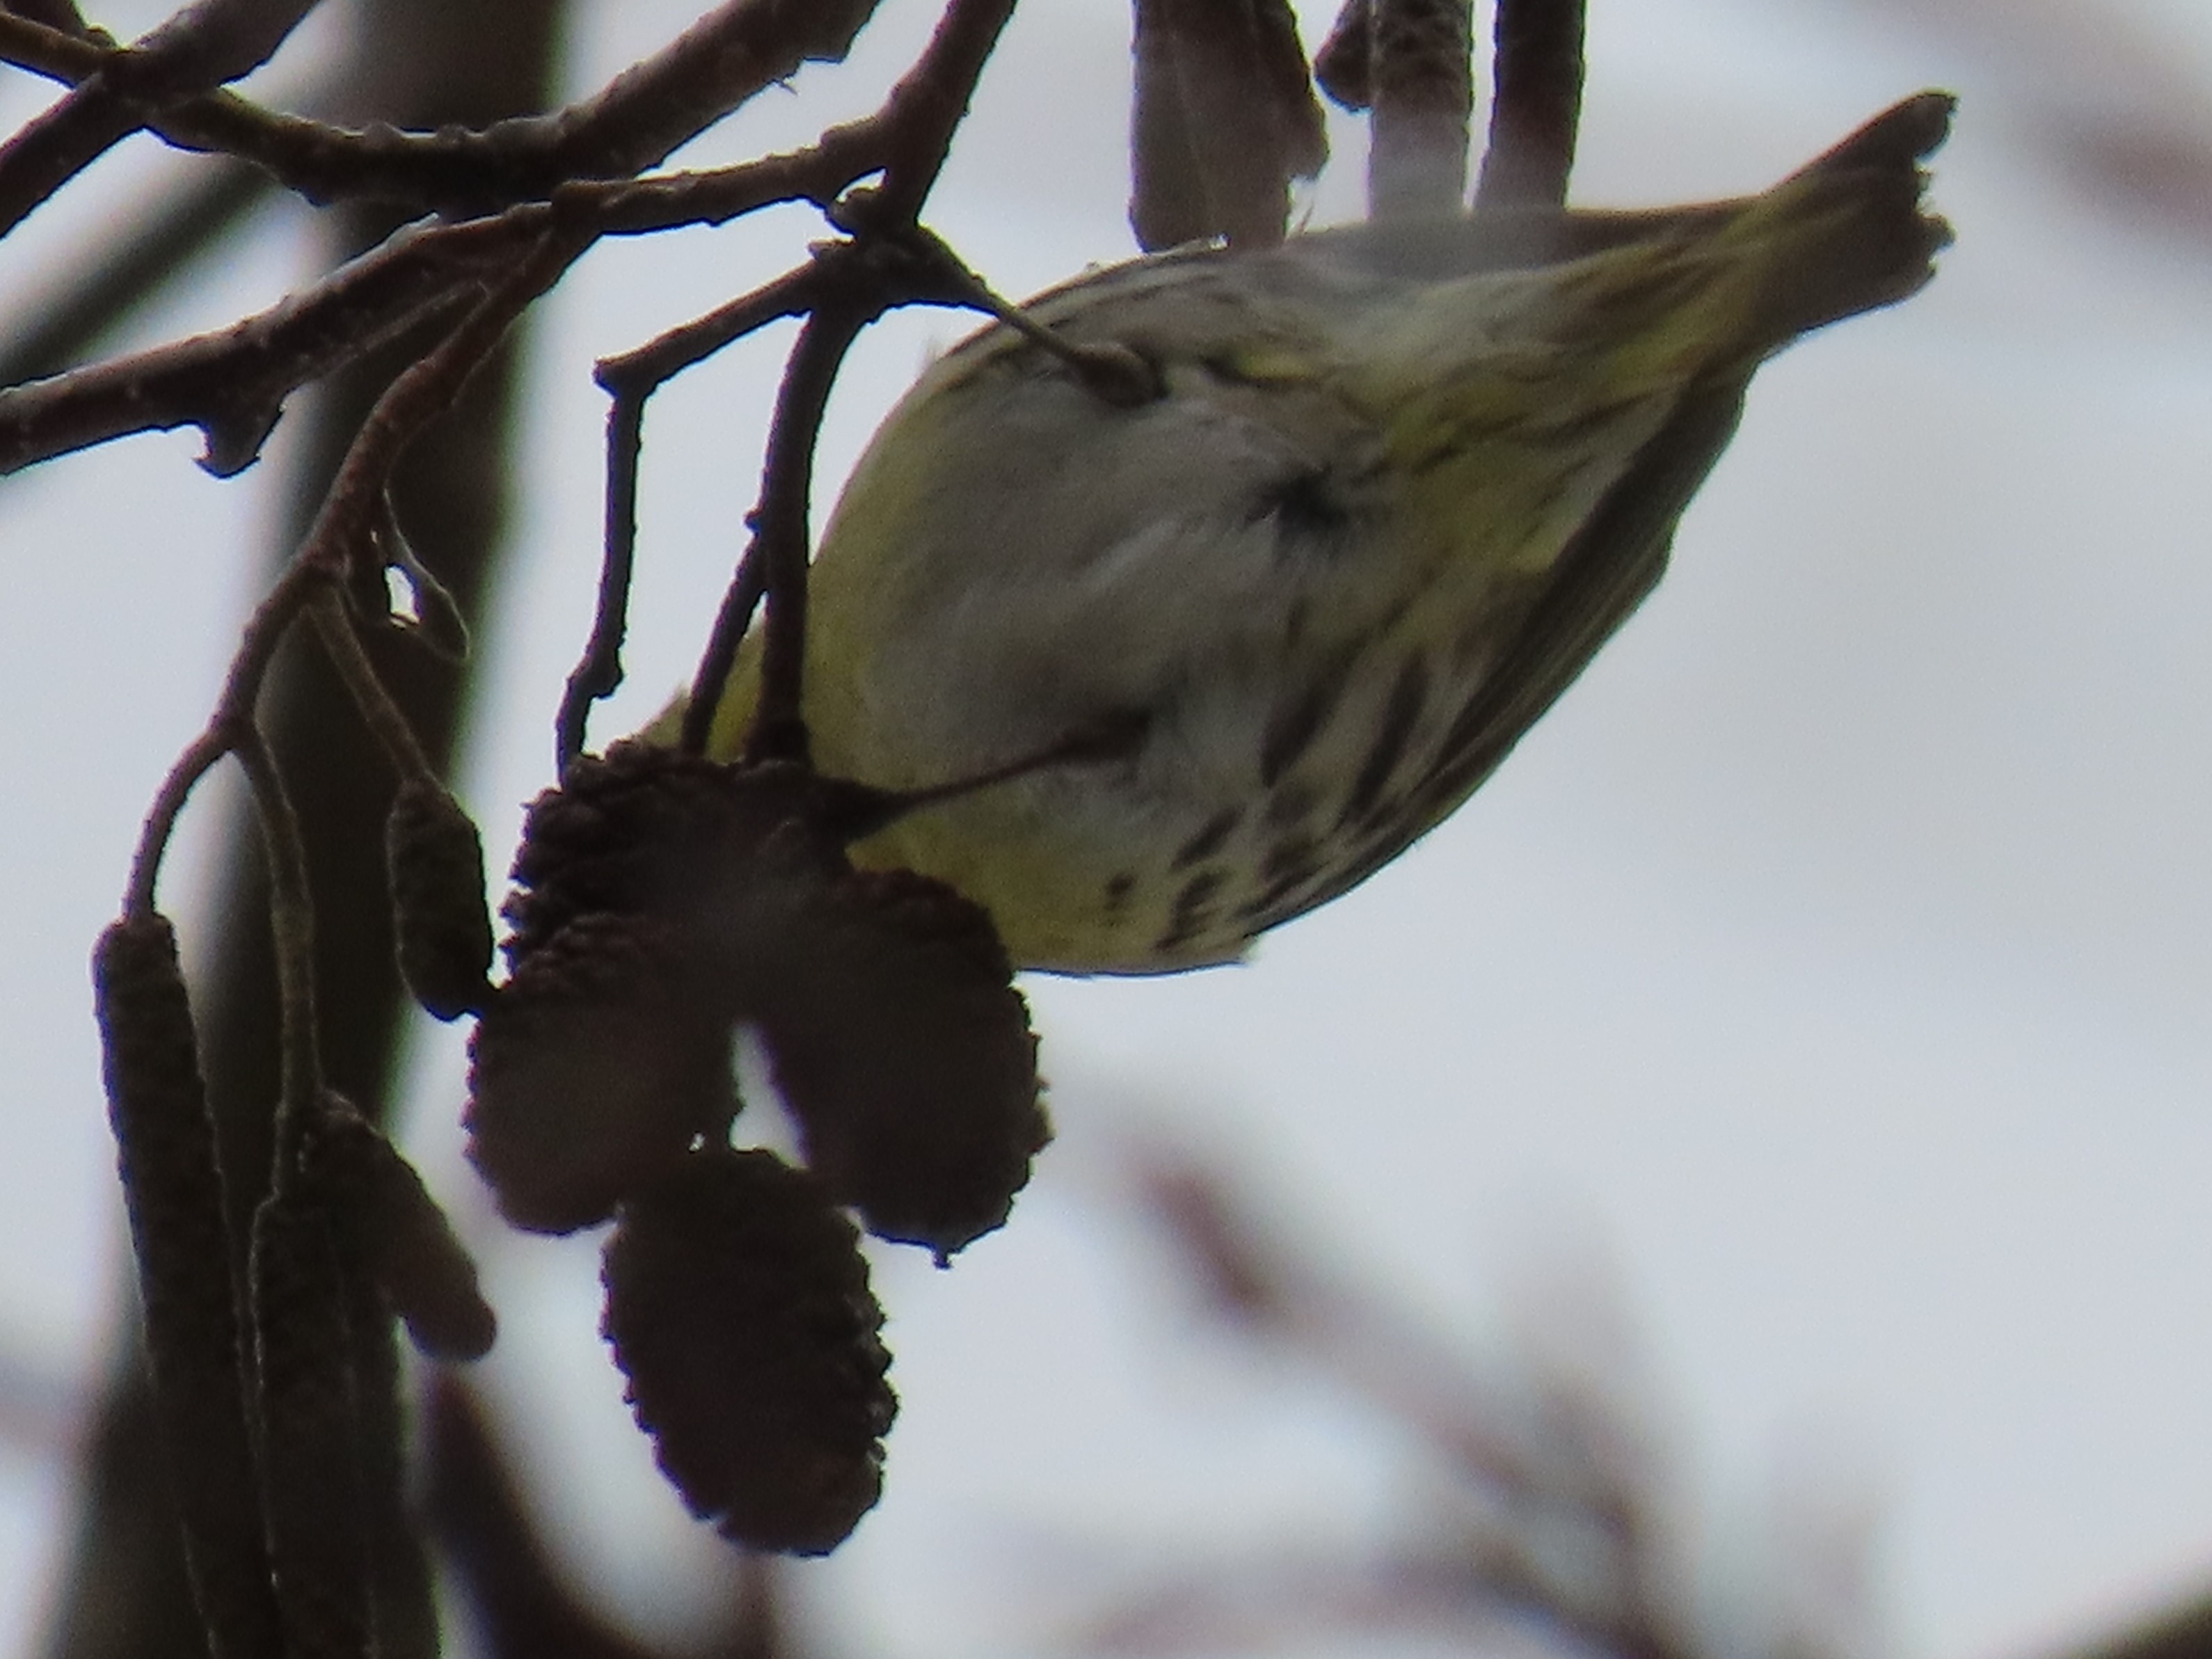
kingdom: Animalia
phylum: Chordata
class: Aves
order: Passeriformes
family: Fringillidae
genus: Spinus
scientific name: Spinus spinus
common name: Grønsisken
